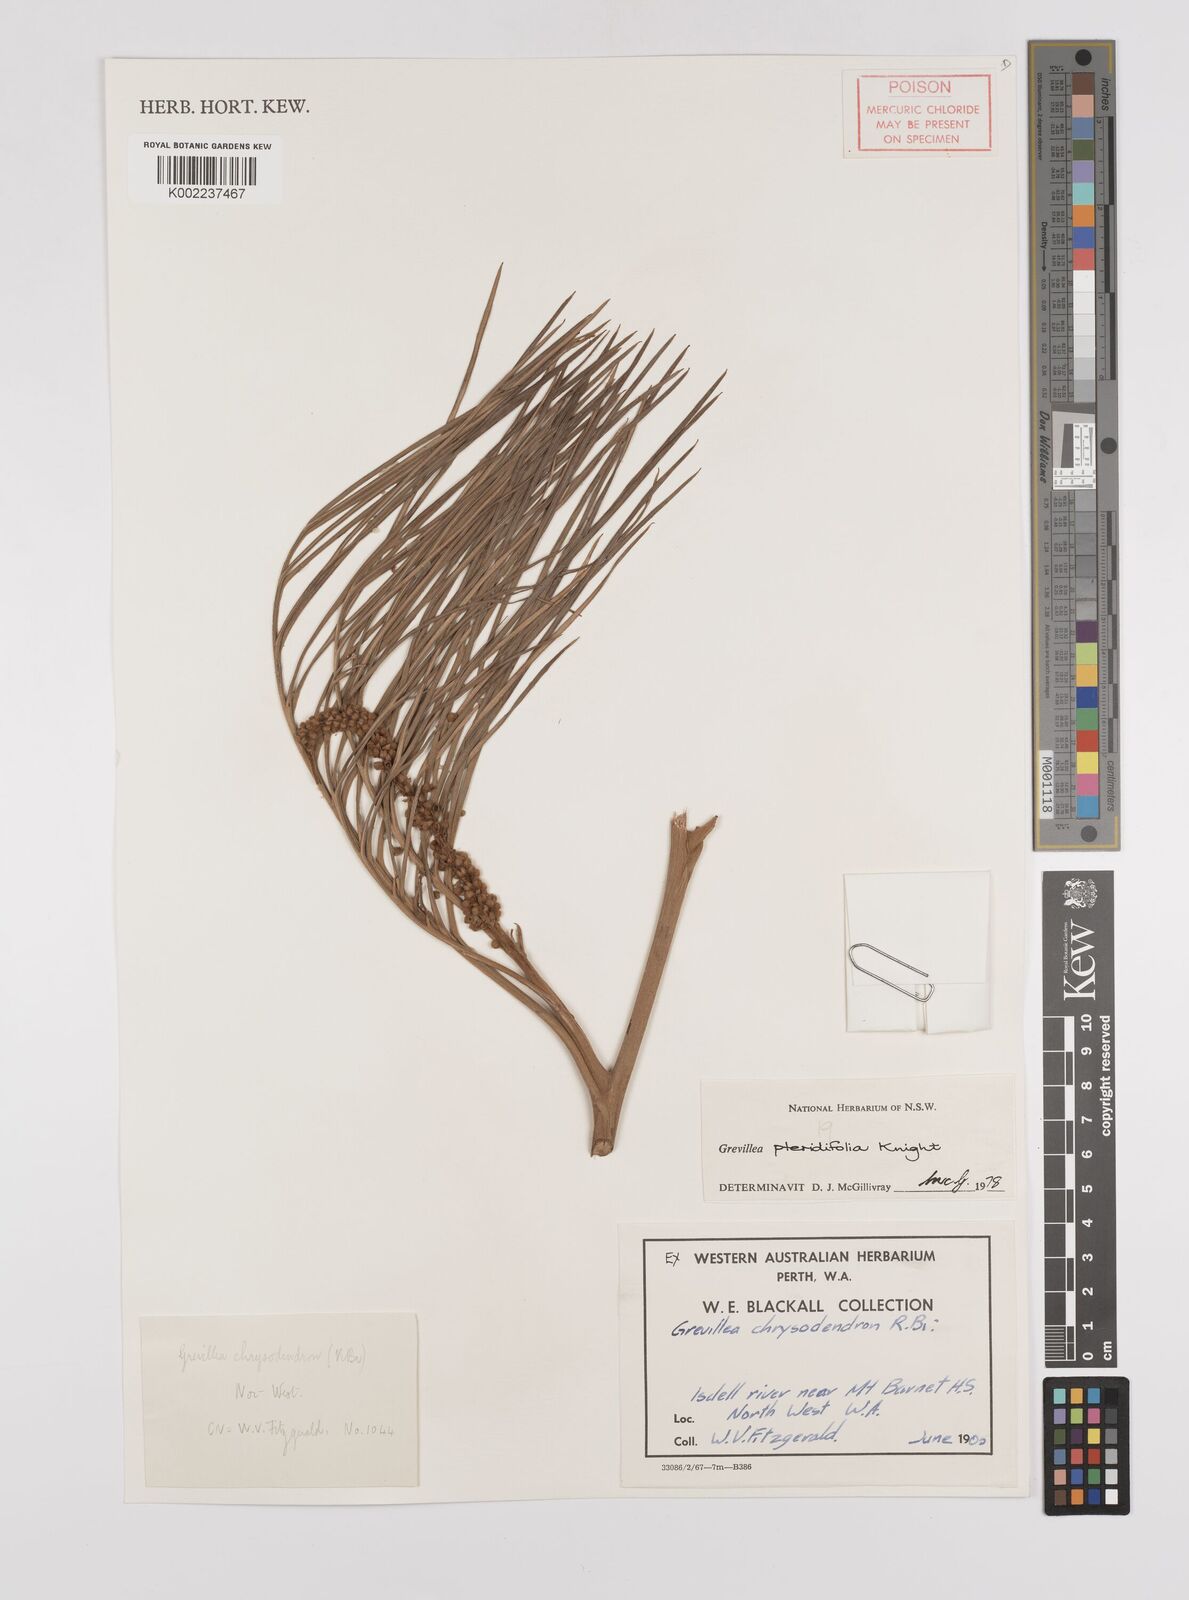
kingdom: Plantae
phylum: Tracheophyta
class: Magnoliopsida
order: Proteales
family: Proteaceae
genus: Grevillea
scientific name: Grevillea pteridifolia
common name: Golden grevillea
